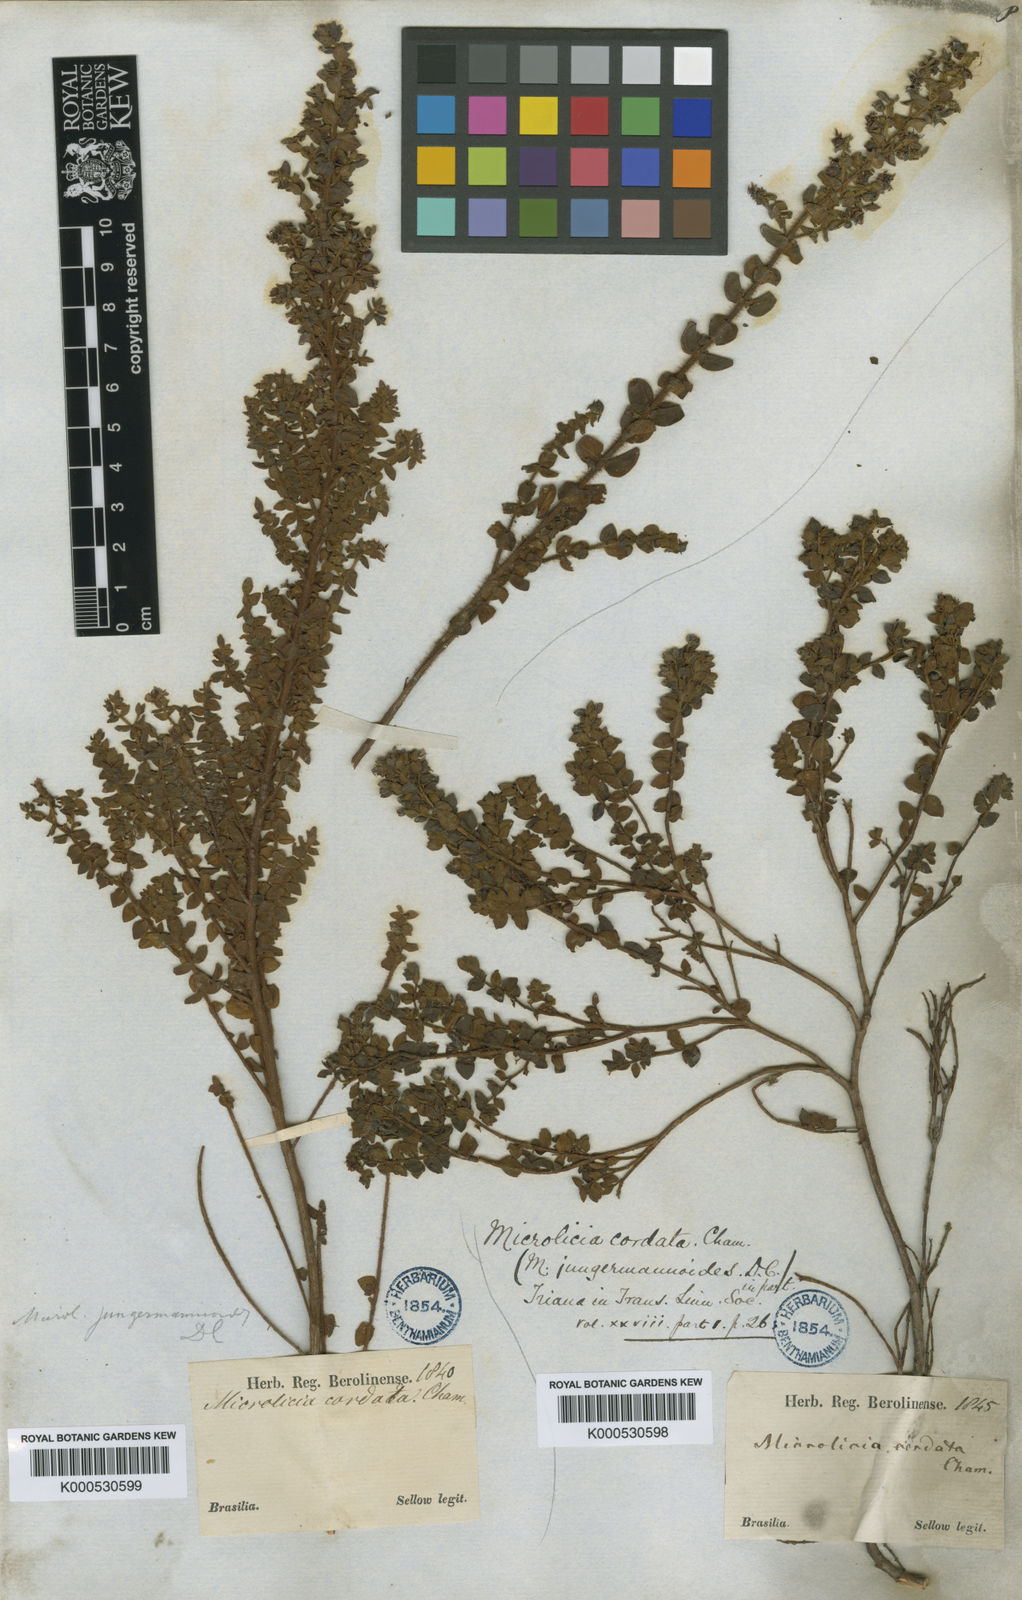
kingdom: Plantae
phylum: Tracheophyta
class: Magnoliopsida
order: Myrtales
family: Melastomataceae
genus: Microlicia
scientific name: Microlicia cordata
